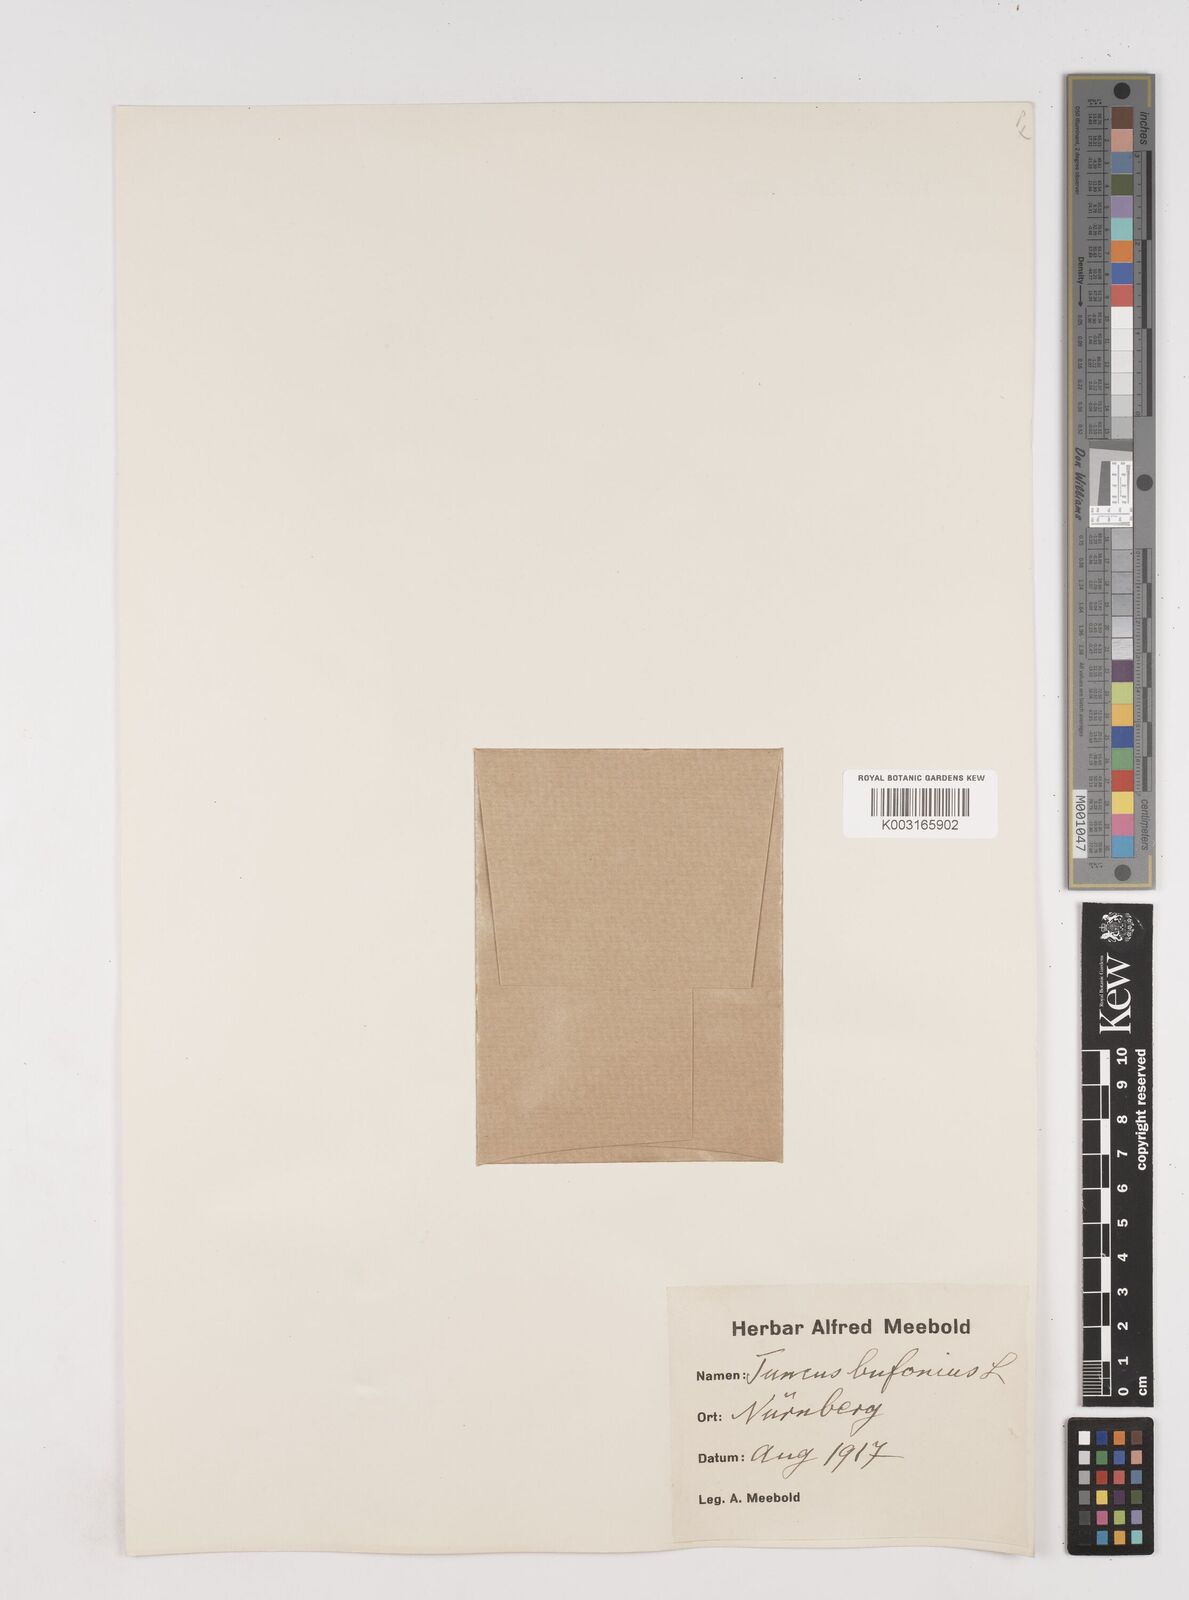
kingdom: Plantae
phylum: Tracheophyta
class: Liliopsida
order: Poales
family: Juncaceae
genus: Juncus
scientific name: Juncus bufonius
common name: Toad rush
